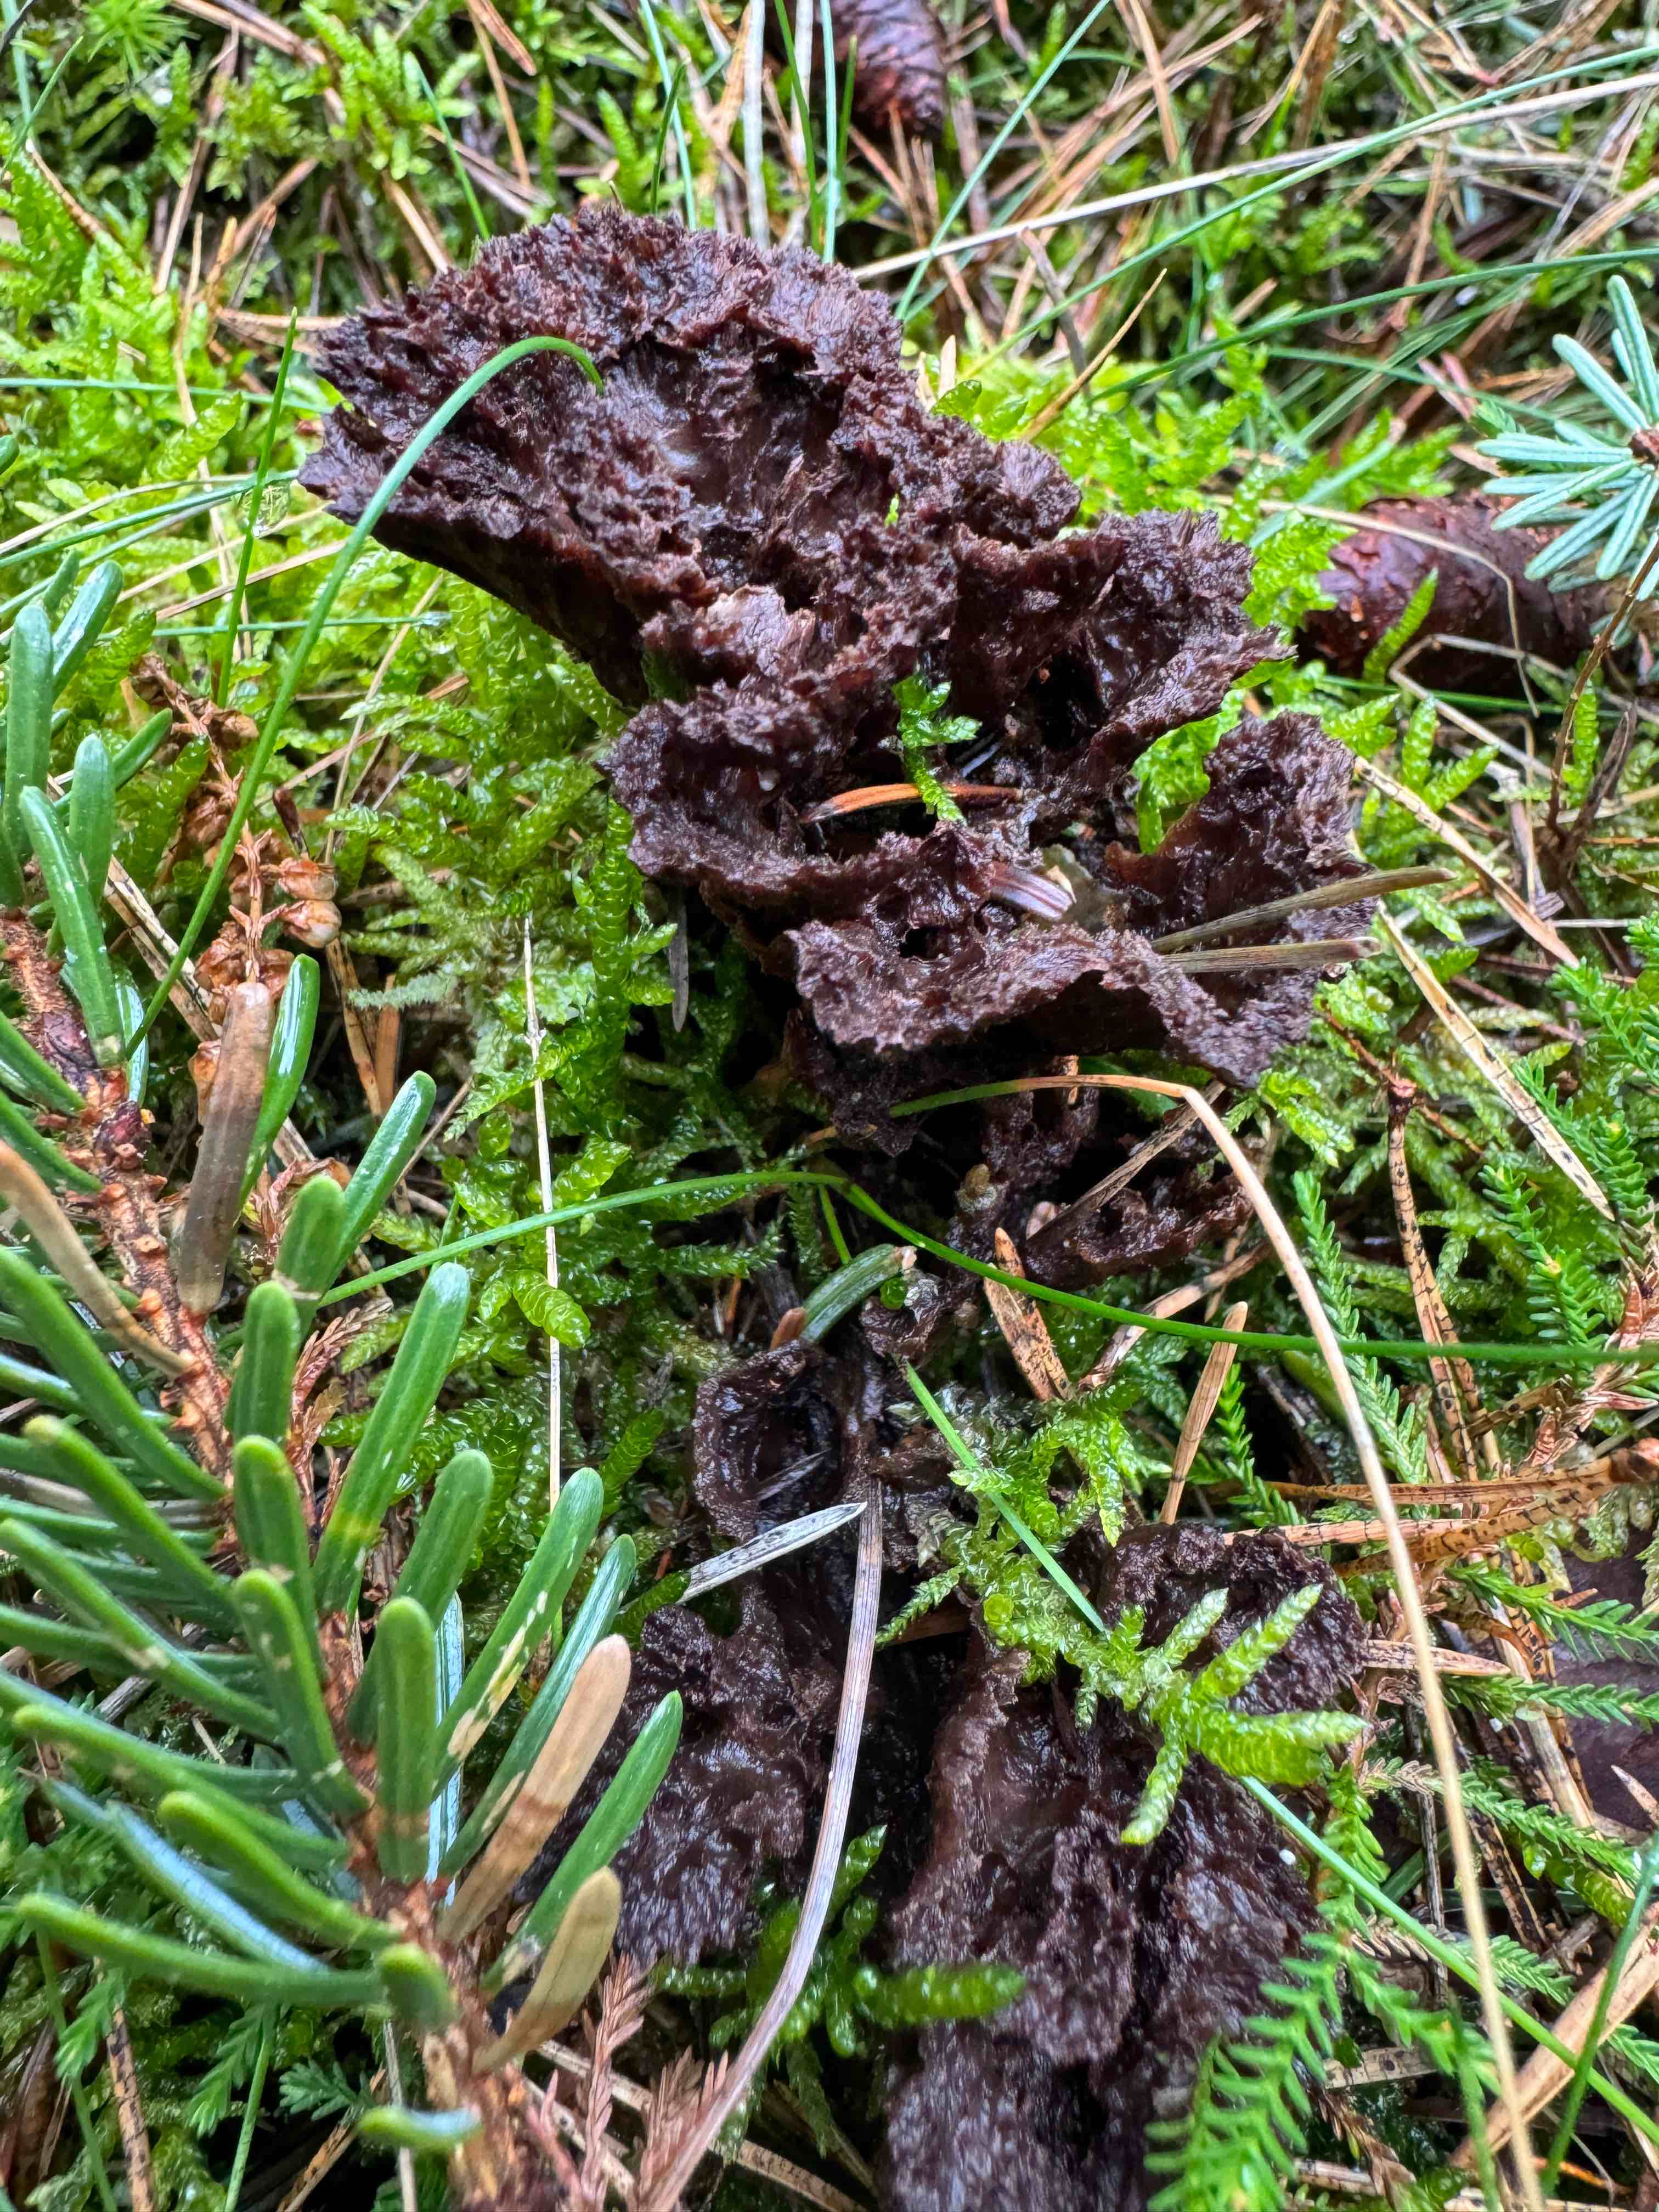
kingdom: Fungi
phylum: Basidiomycota
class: Agaricomycetes
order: Thelephorales
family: Thelephoraceae
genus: Thelephora
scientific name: Thelephora terrestris
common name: fliget frynsesvamp
